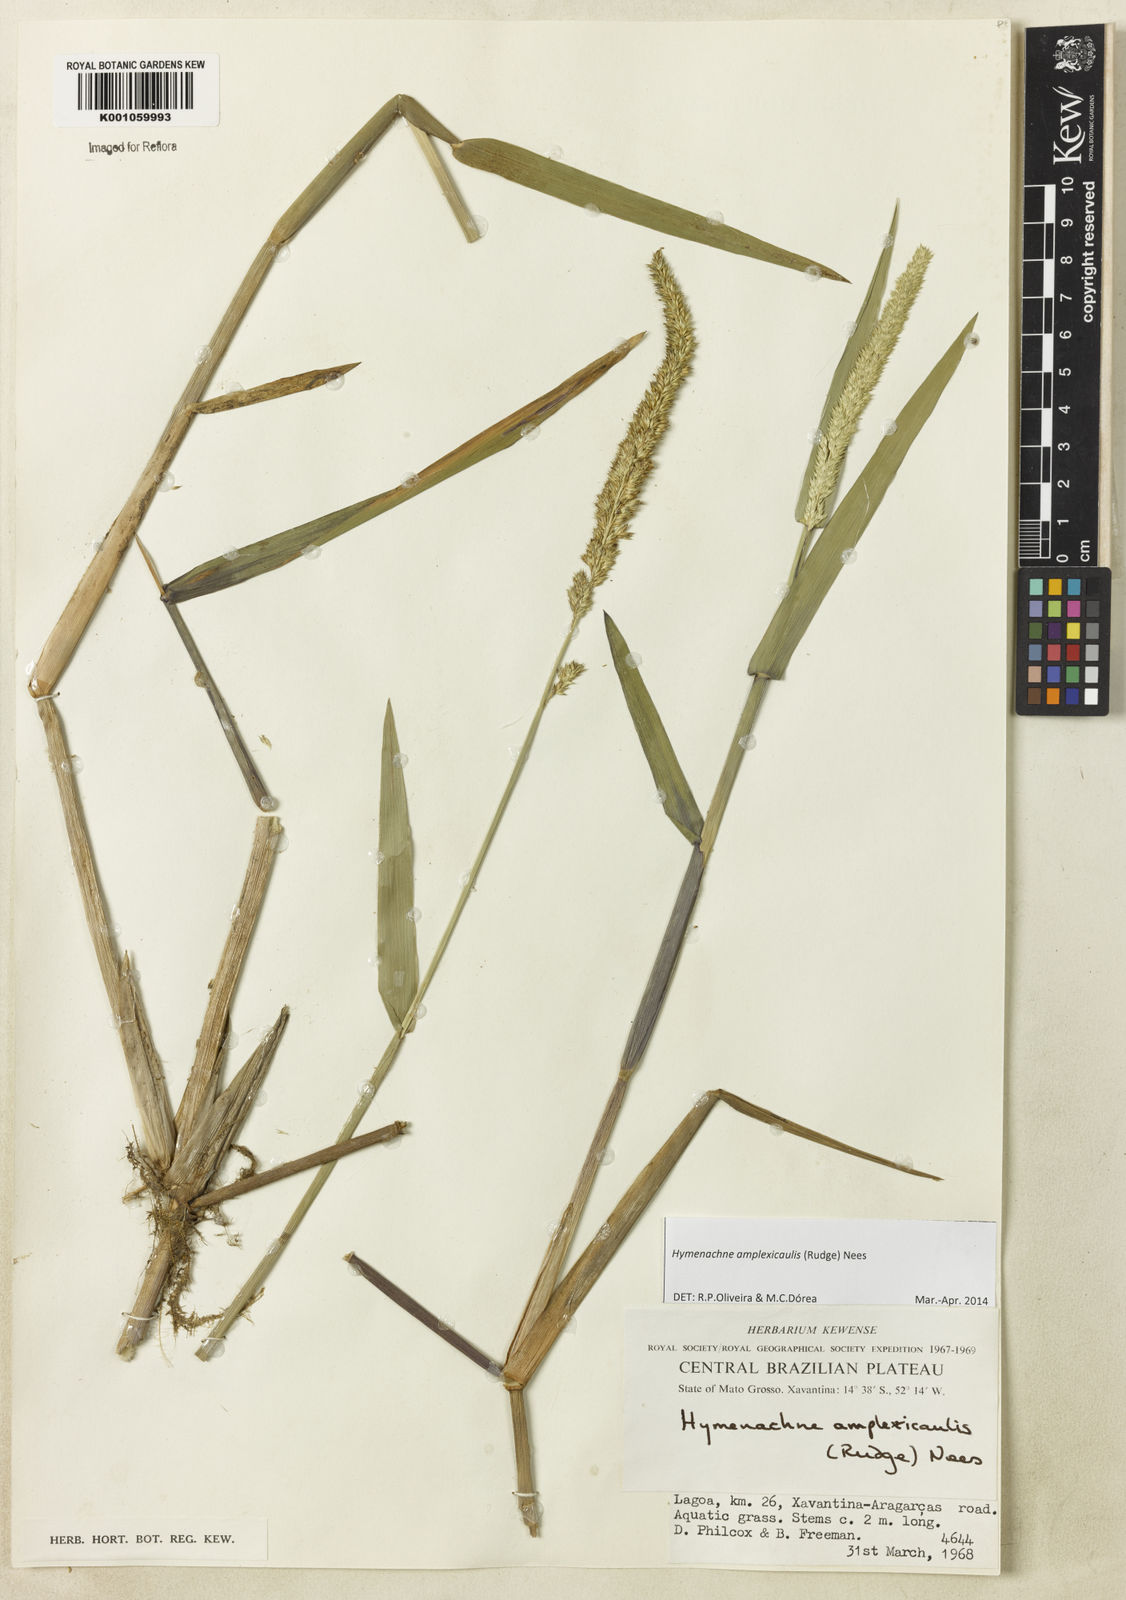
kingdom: Plantae
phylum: Tracheophyta
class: Liliopsida
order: Poales
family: Poaceae
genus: Hymenachne
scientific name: Hymenachne amplexicaulis
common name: Olive hymenachne
